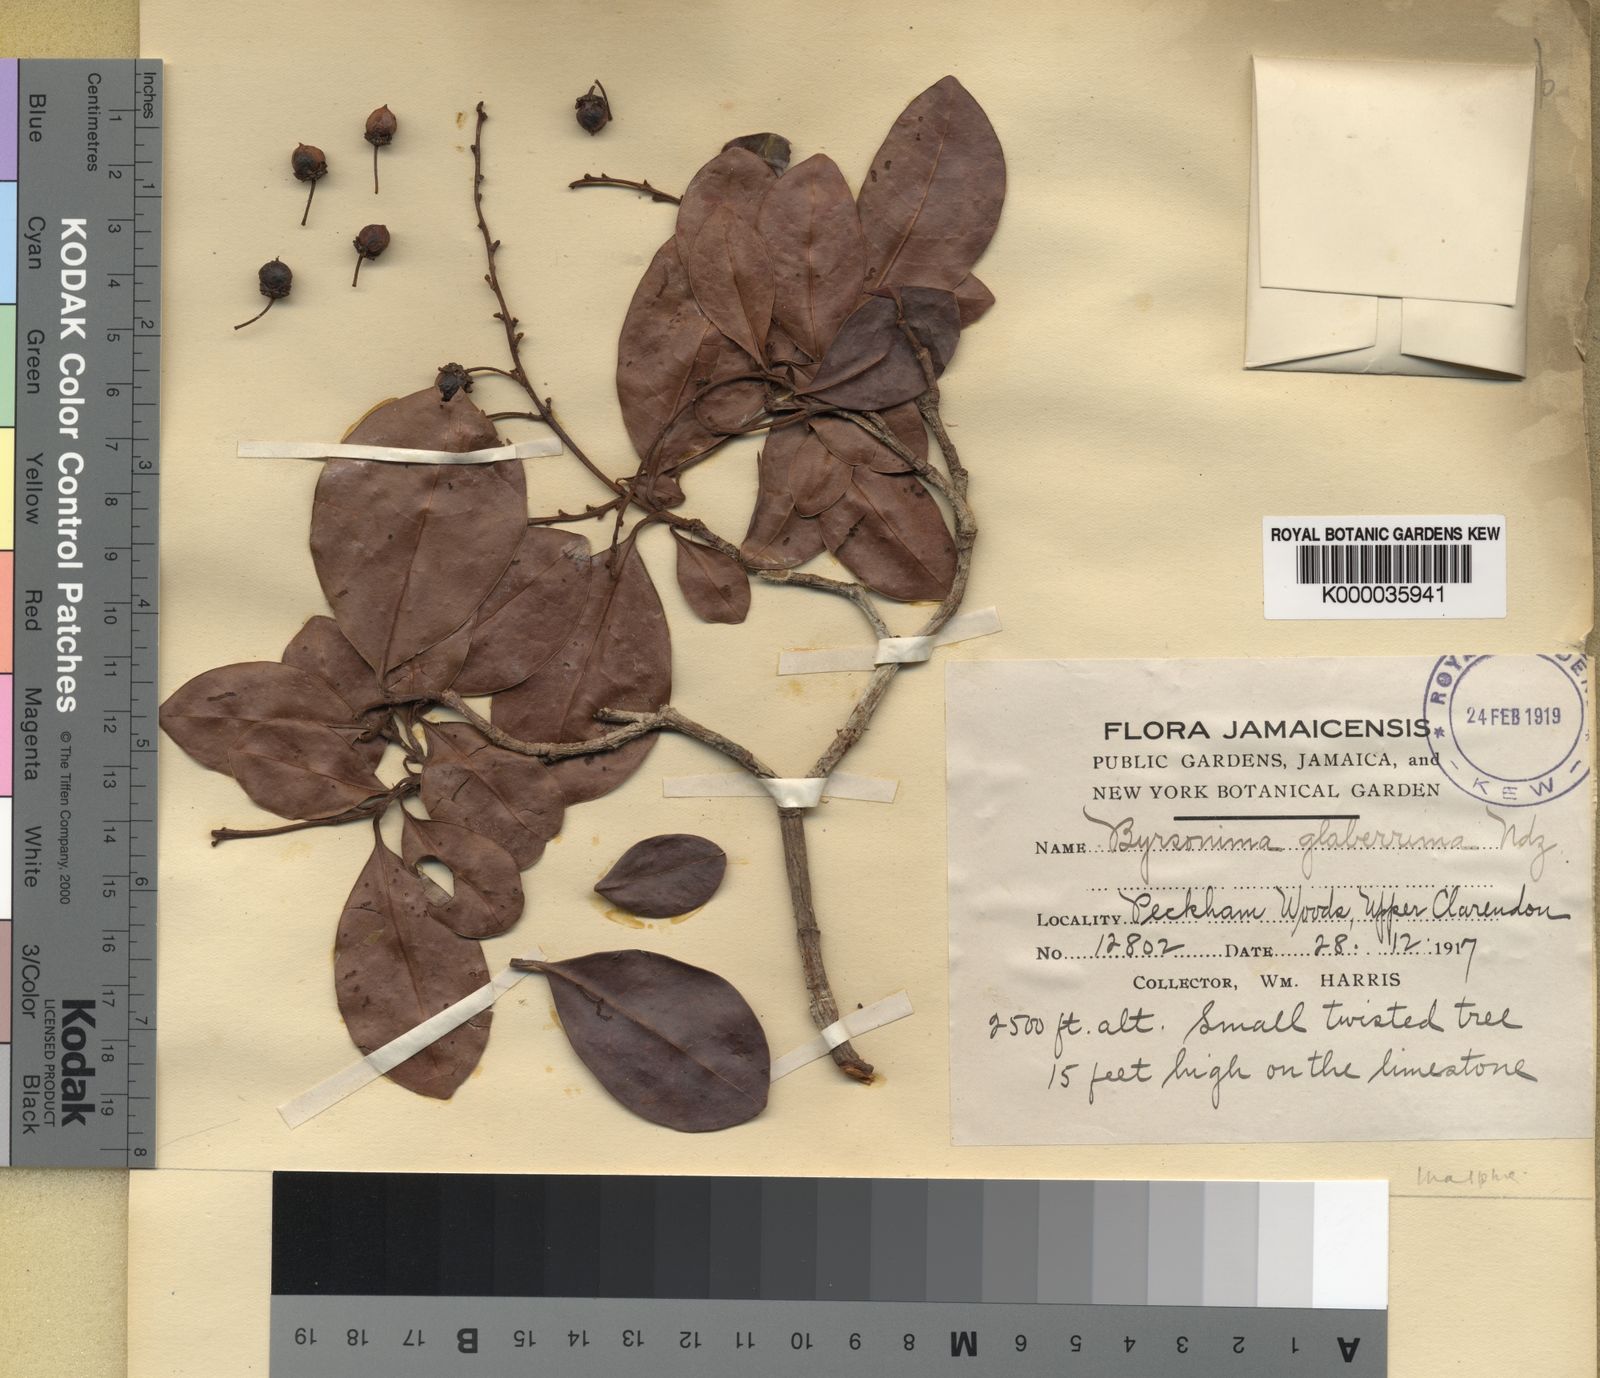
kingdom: Plantae
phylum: Tracheophyta
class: Magnoliopsida
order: Malpighiales
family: Malpighiaceae
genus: Byrsonima
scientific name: Byrsonima trinitensis
